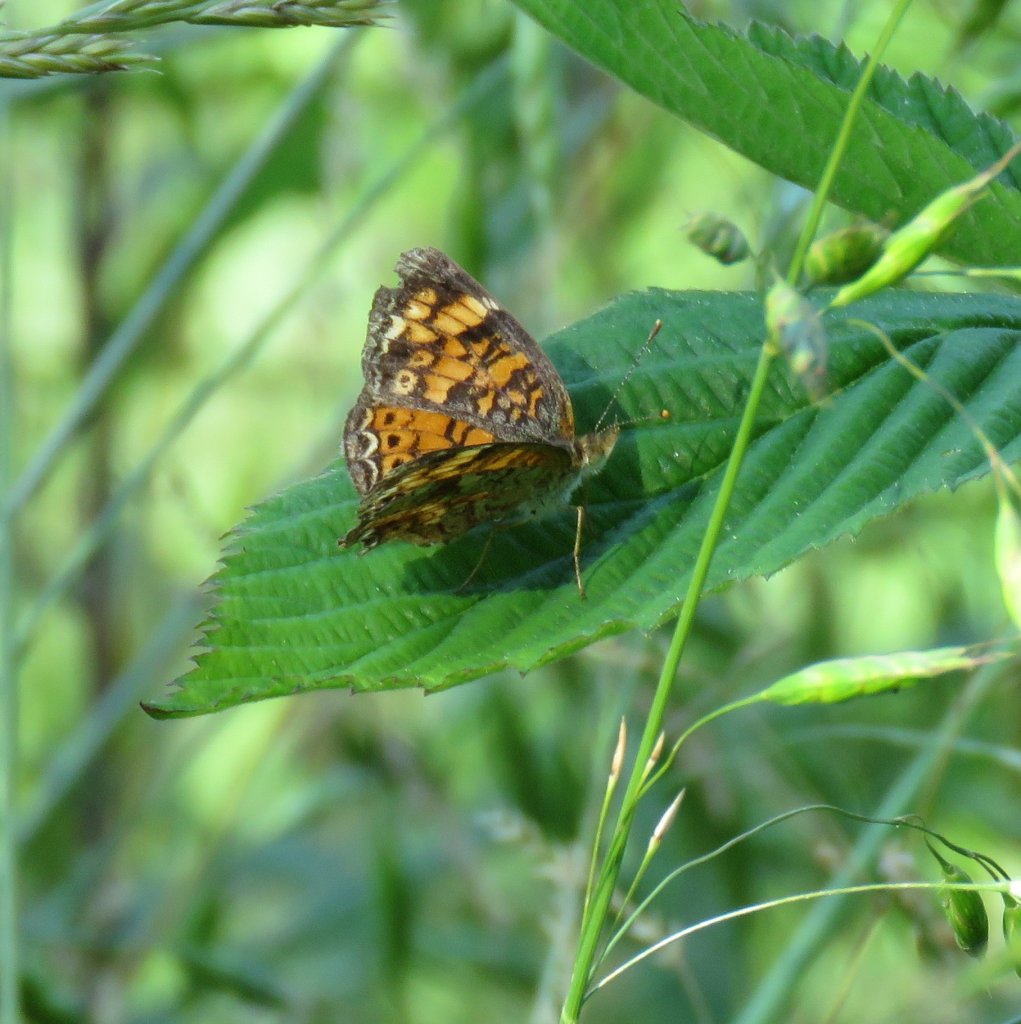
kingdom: Animalia
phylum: Arthropoda
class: Insecta
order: Lepidoptera
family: Nymphalidae
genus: Phyciodes
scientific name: Phyciodes tharos
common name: Pearl Crescent
